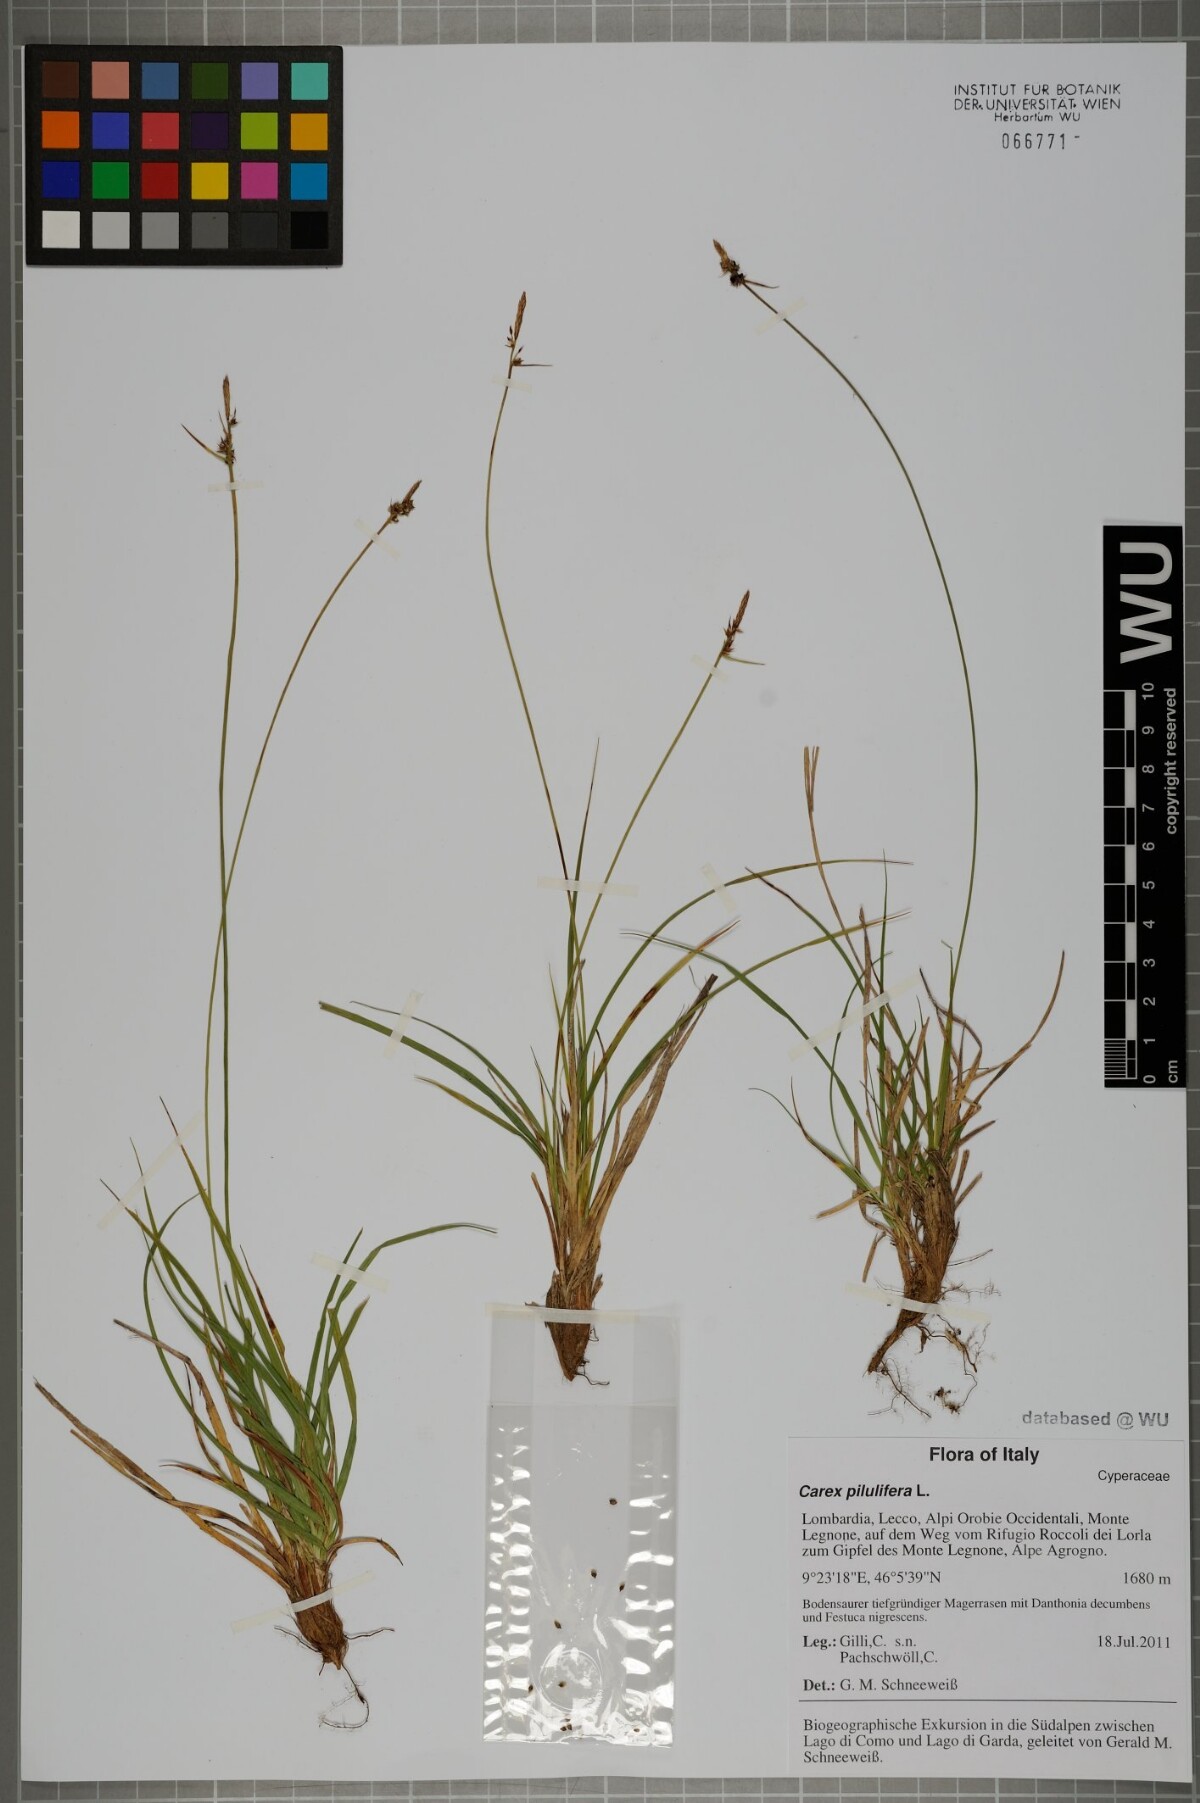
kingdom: Plantae
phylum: Tracheophyta
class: Liliopsida
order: Poales
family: Cyperaceae
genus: Carex
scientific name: Carex pilulifera
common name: Pill sedge
